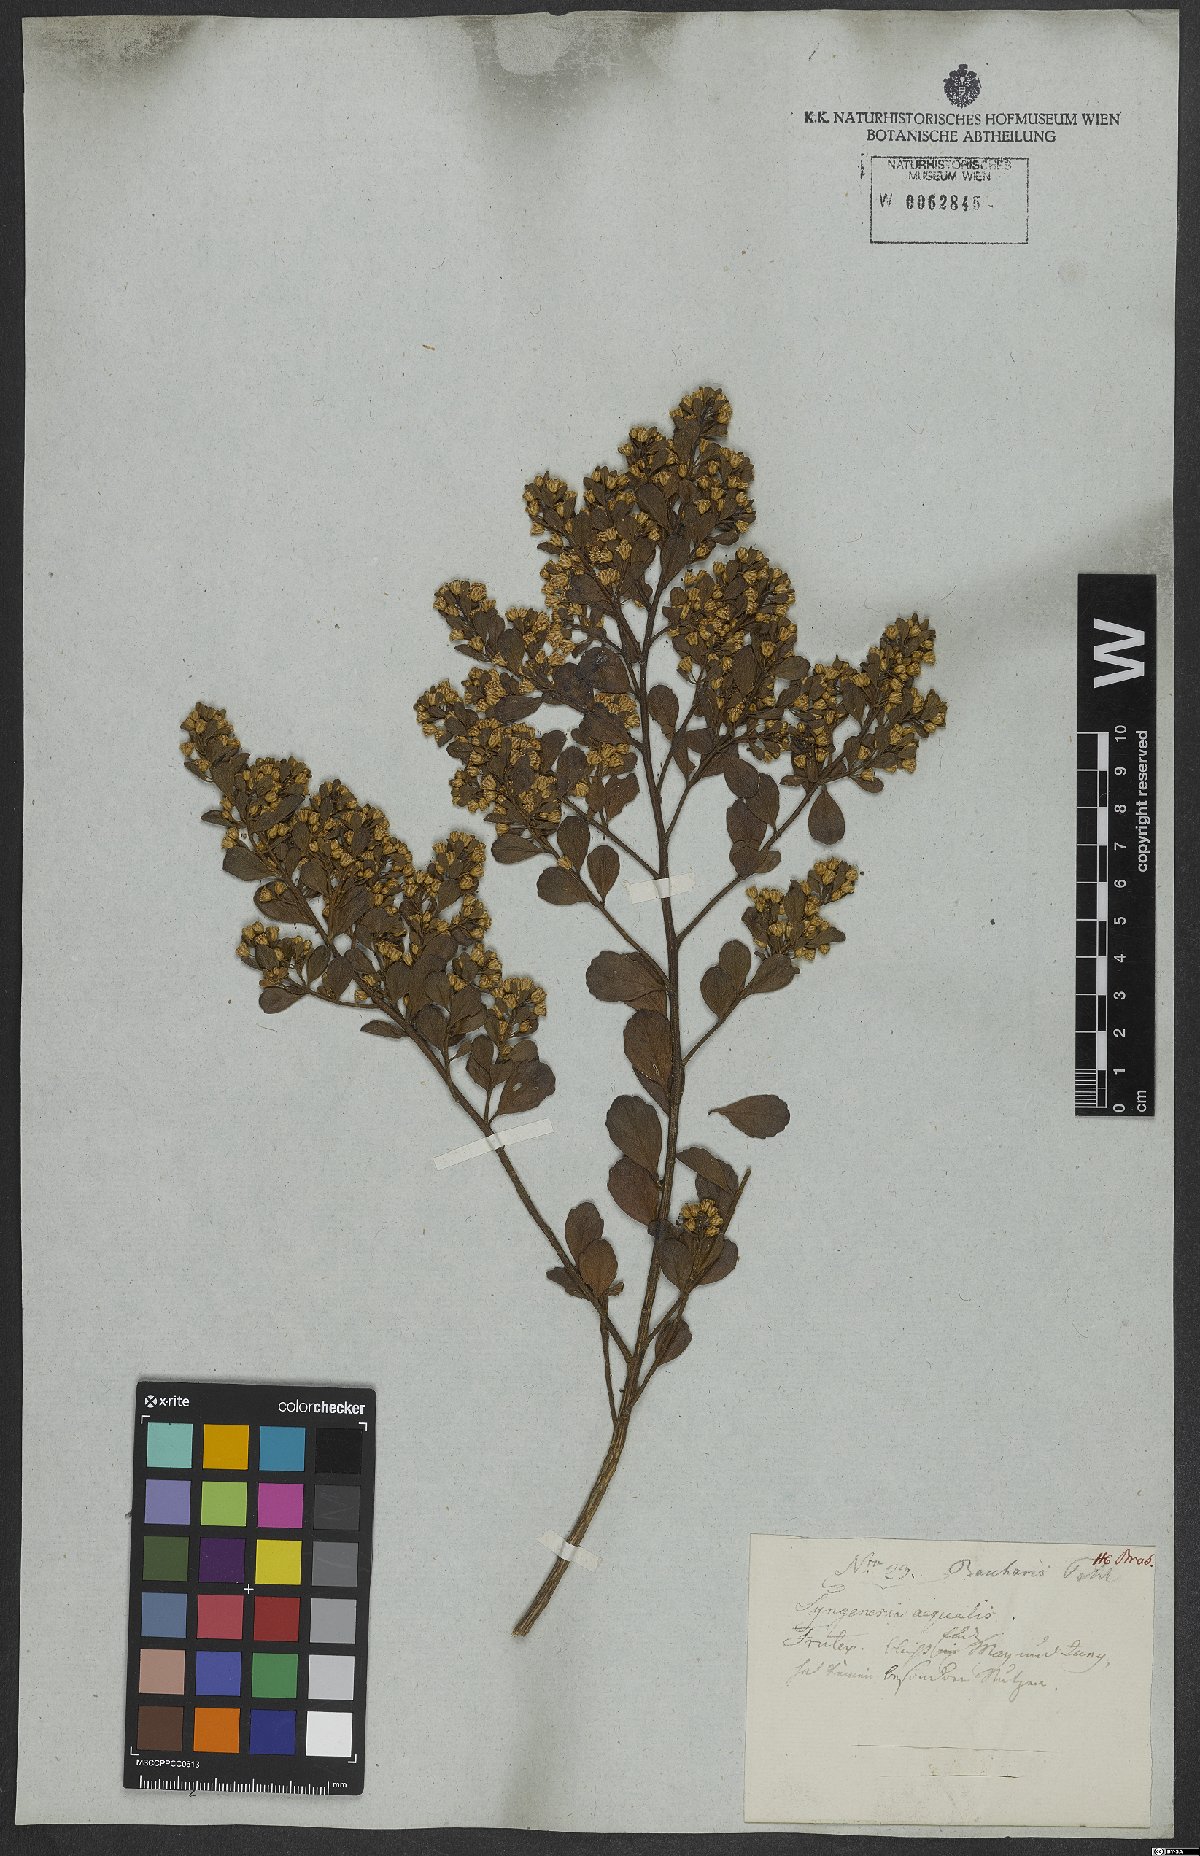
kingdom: Plantae
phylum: Tracheophyta
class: Magnoliopsida
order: Asterales
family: Asteraceae
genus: Baccharis
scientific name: Baccharis
